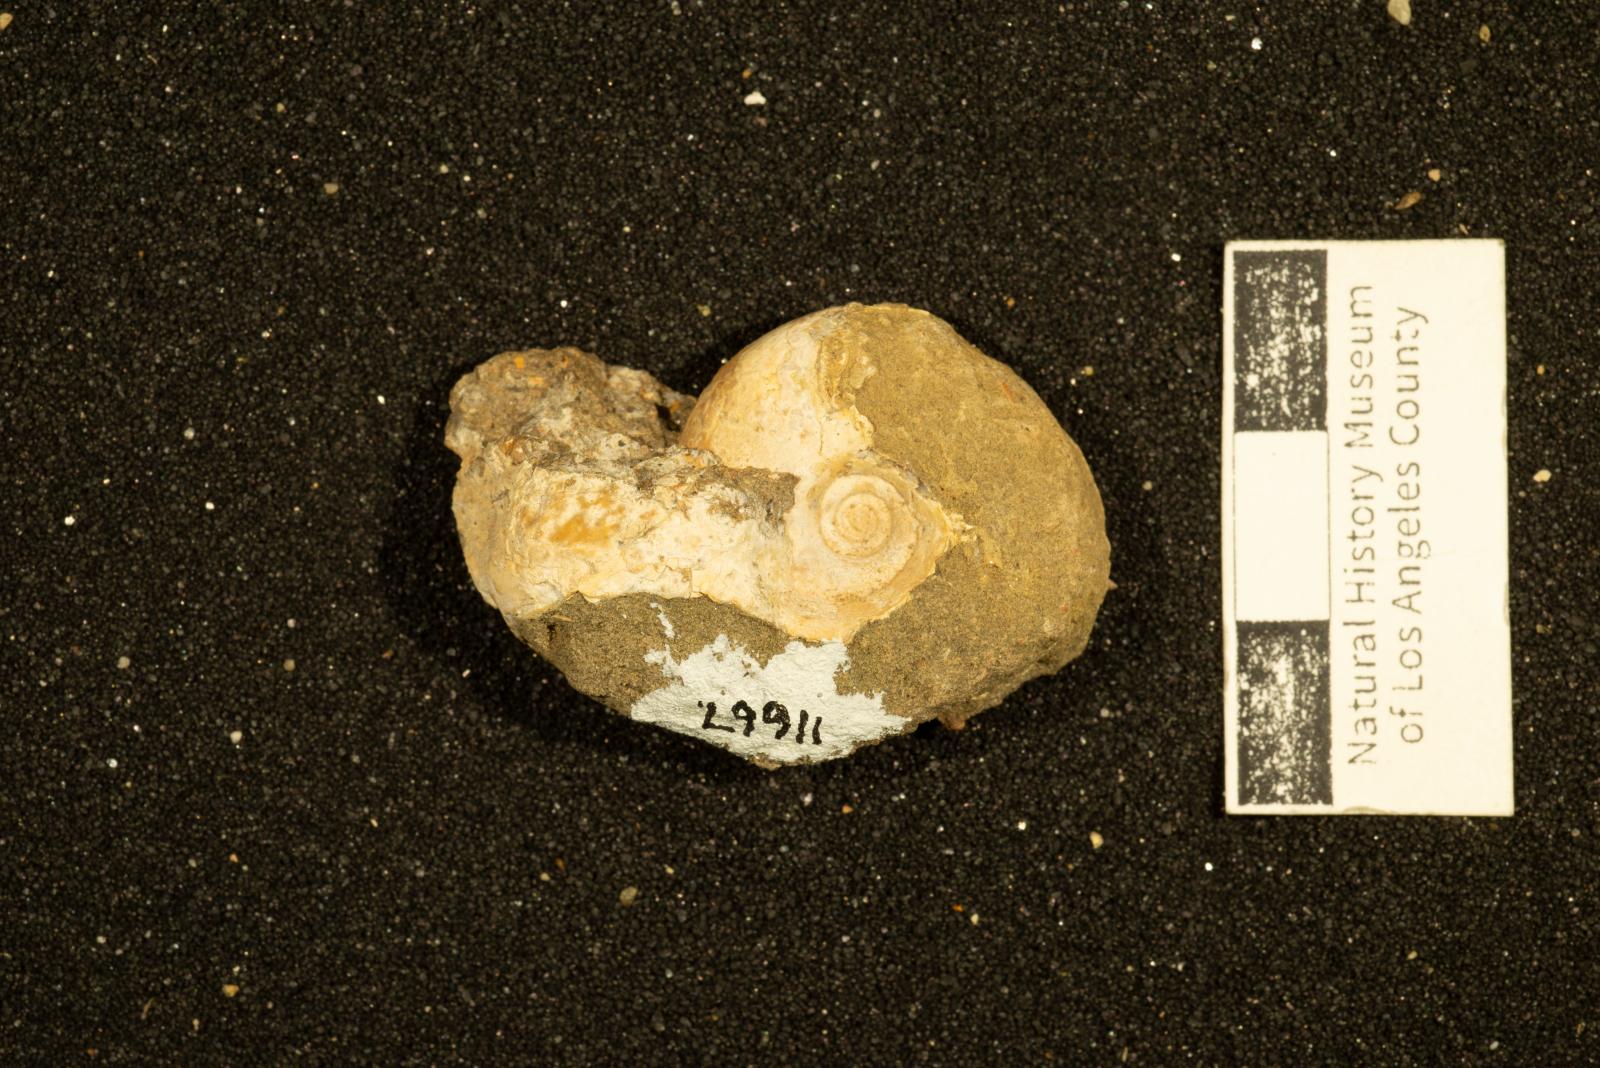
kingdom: Animalia
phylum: Mollusca
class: Cephalopoda
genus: Tetragonites
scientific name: Tetragonites popetensis
